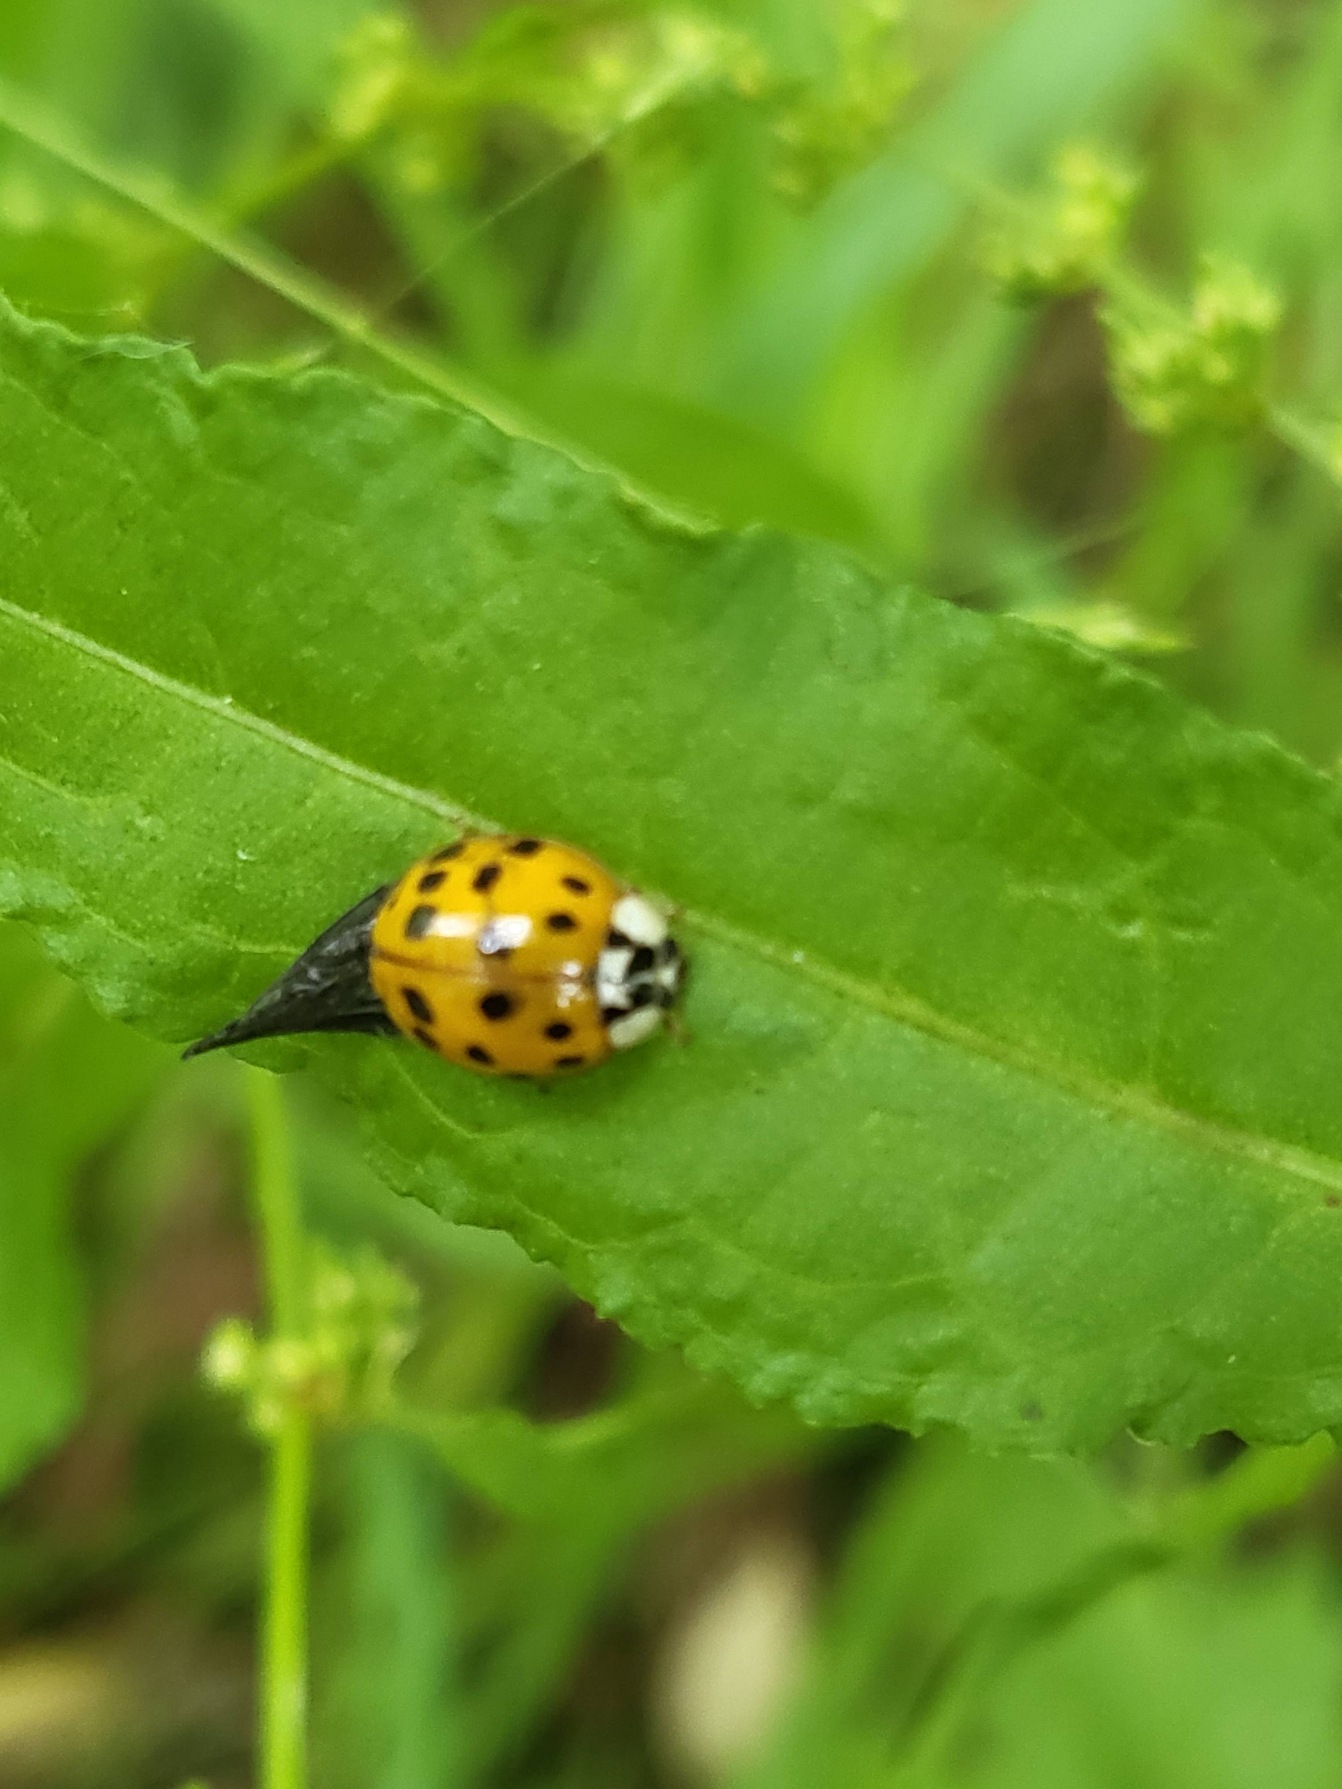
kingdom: Animalia
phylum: Arthropoda
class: Insecta
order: Coleoptera
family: Coccinellidae
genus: Harmonia
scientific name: Harmonia axyridis
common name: Harlekinmariehøne
